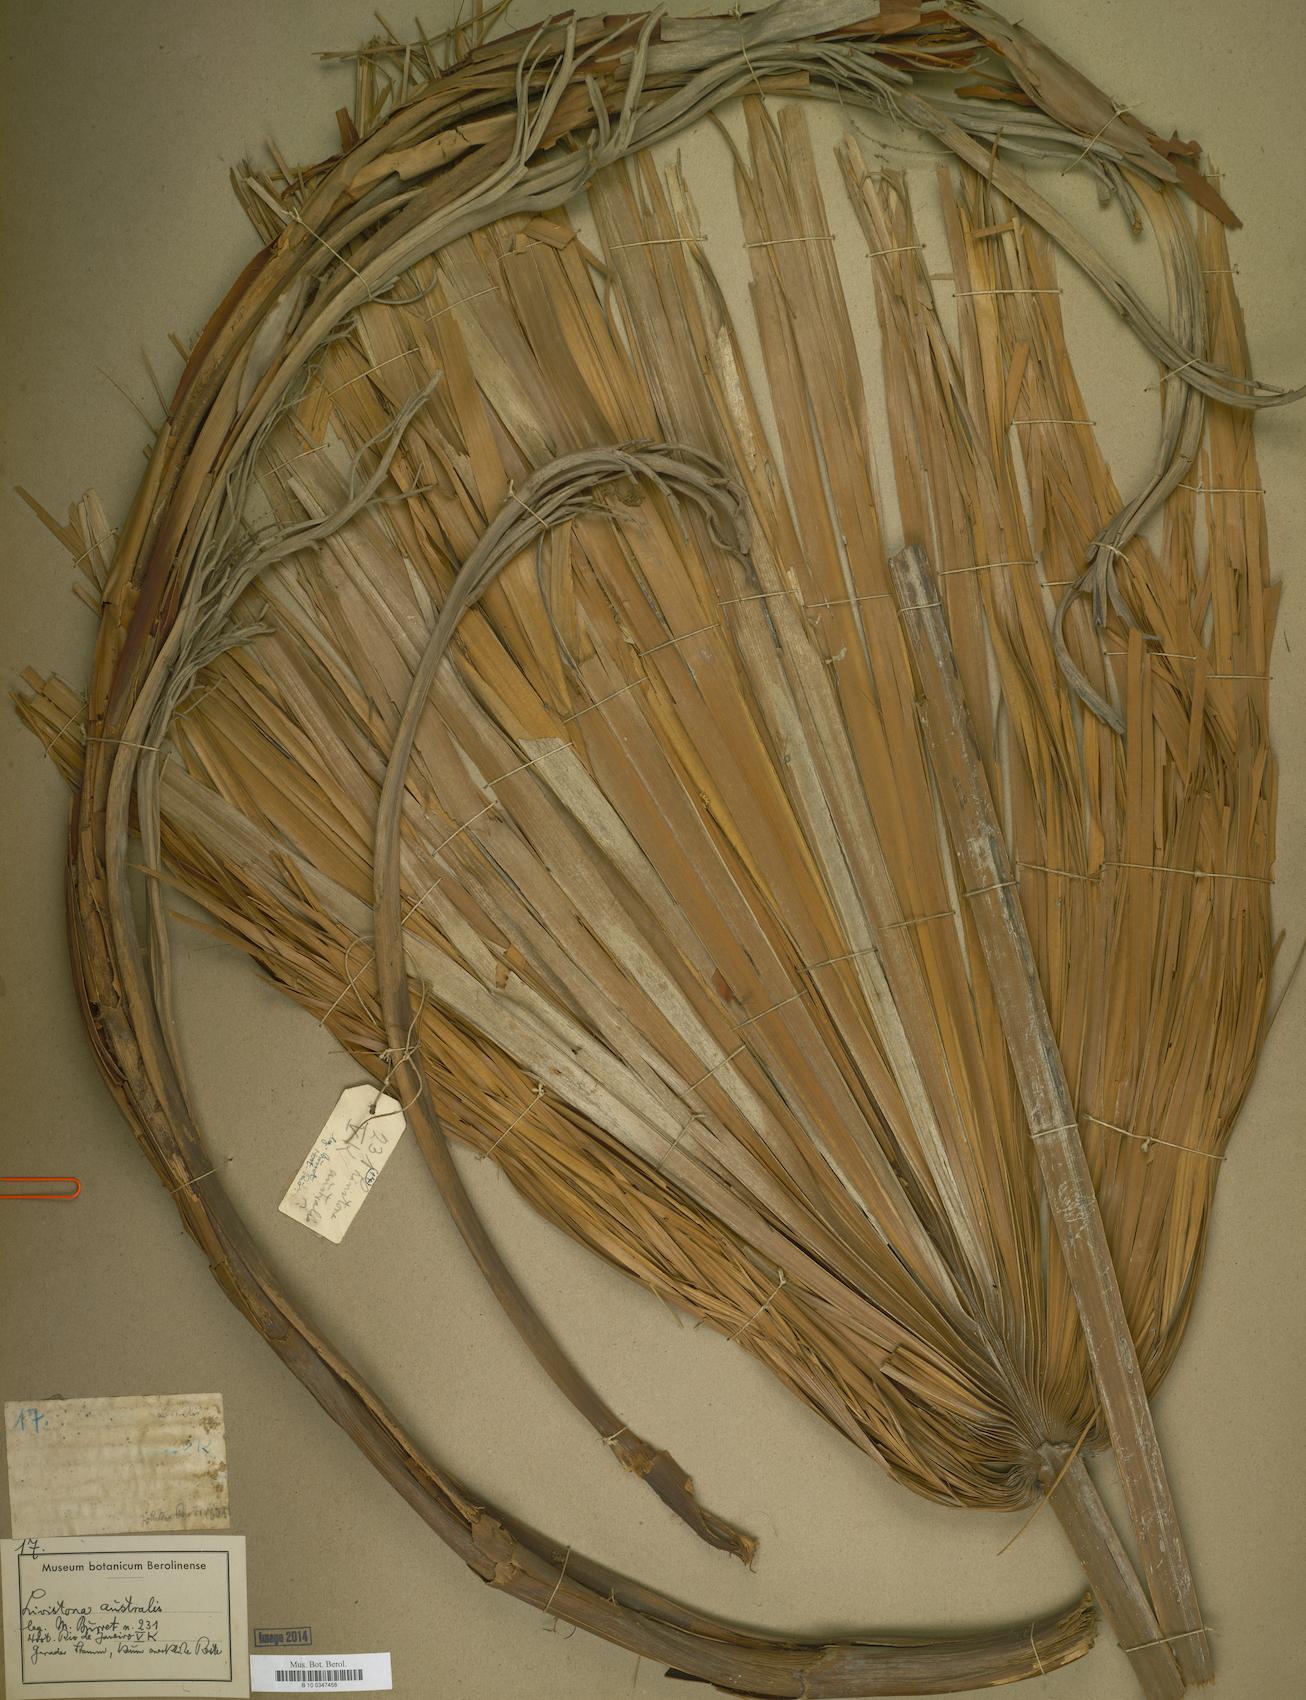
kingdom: Plantae
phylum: Tracheophyta
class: Liliopsida
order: Arecales
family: Arecaceae
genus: Livistona
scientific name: Livistona australis
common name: Cabbage fan palm
